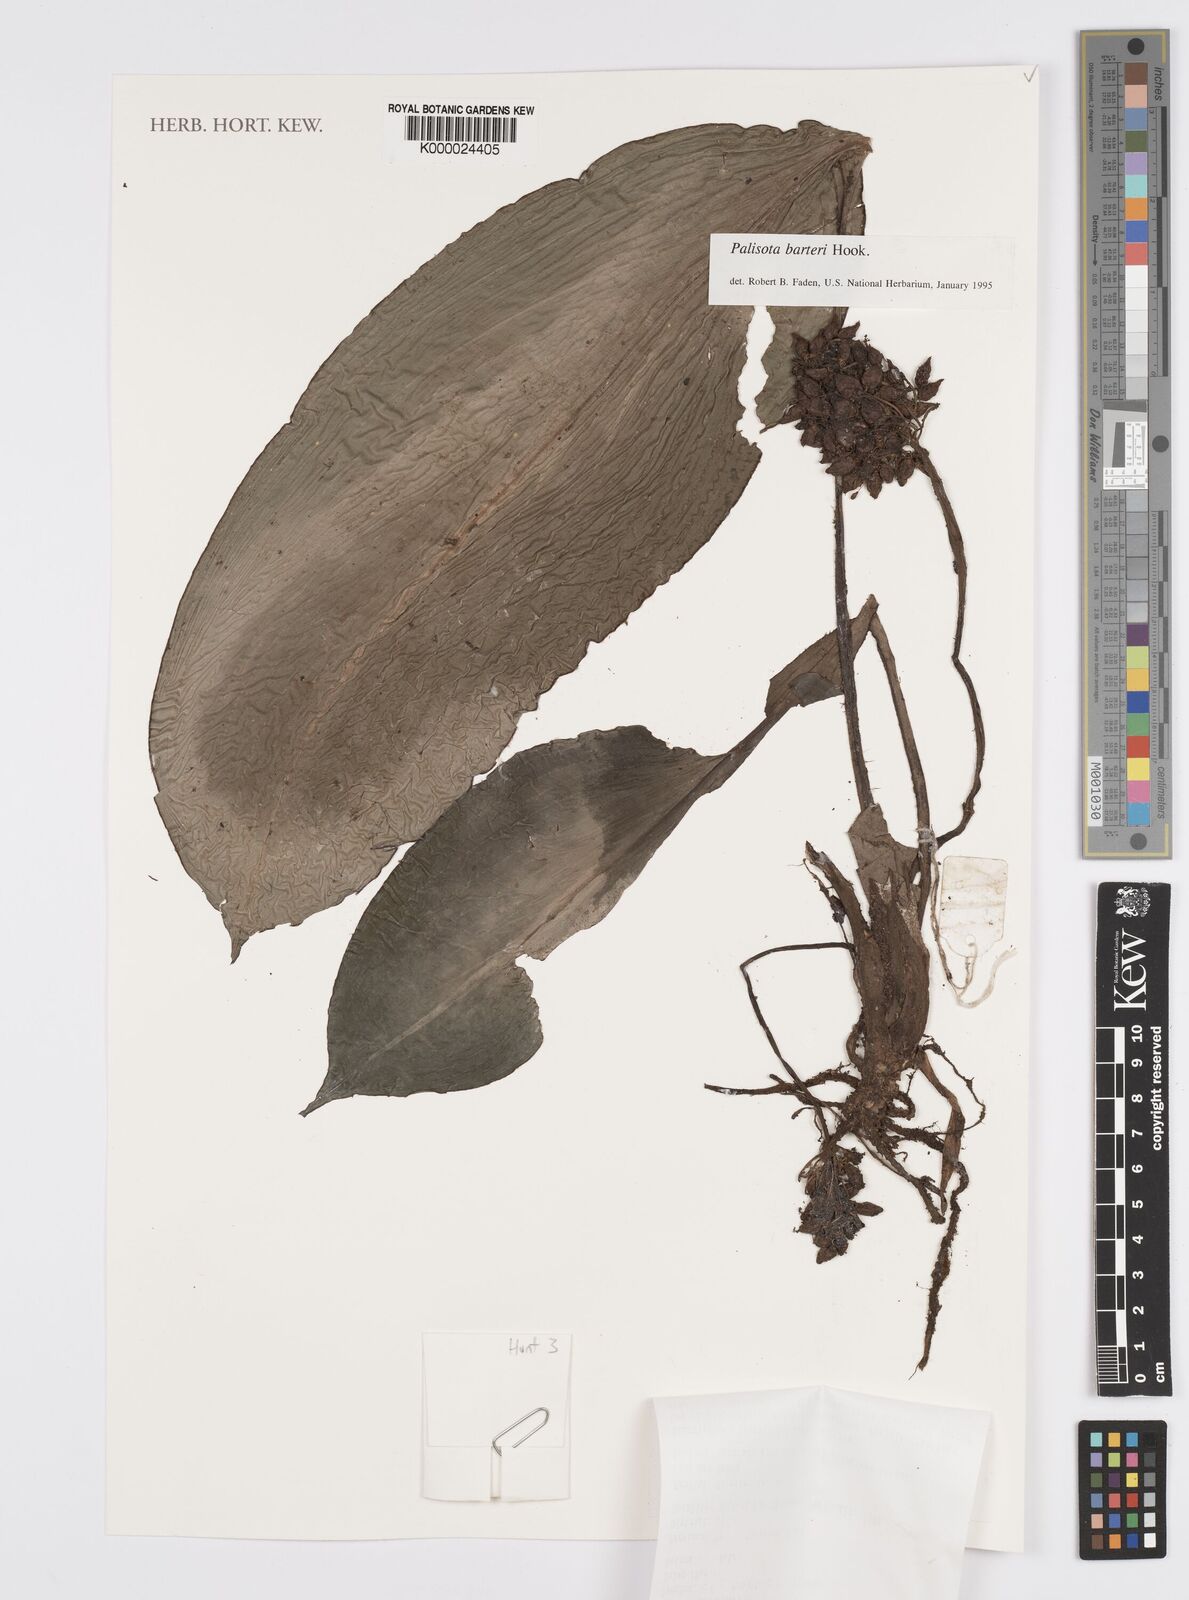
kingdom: Plantae
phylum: Tracheophyta
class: Liliopsida
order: Commelinales
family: Commelinaceae
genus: Palisota
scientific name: Palisota barteri
